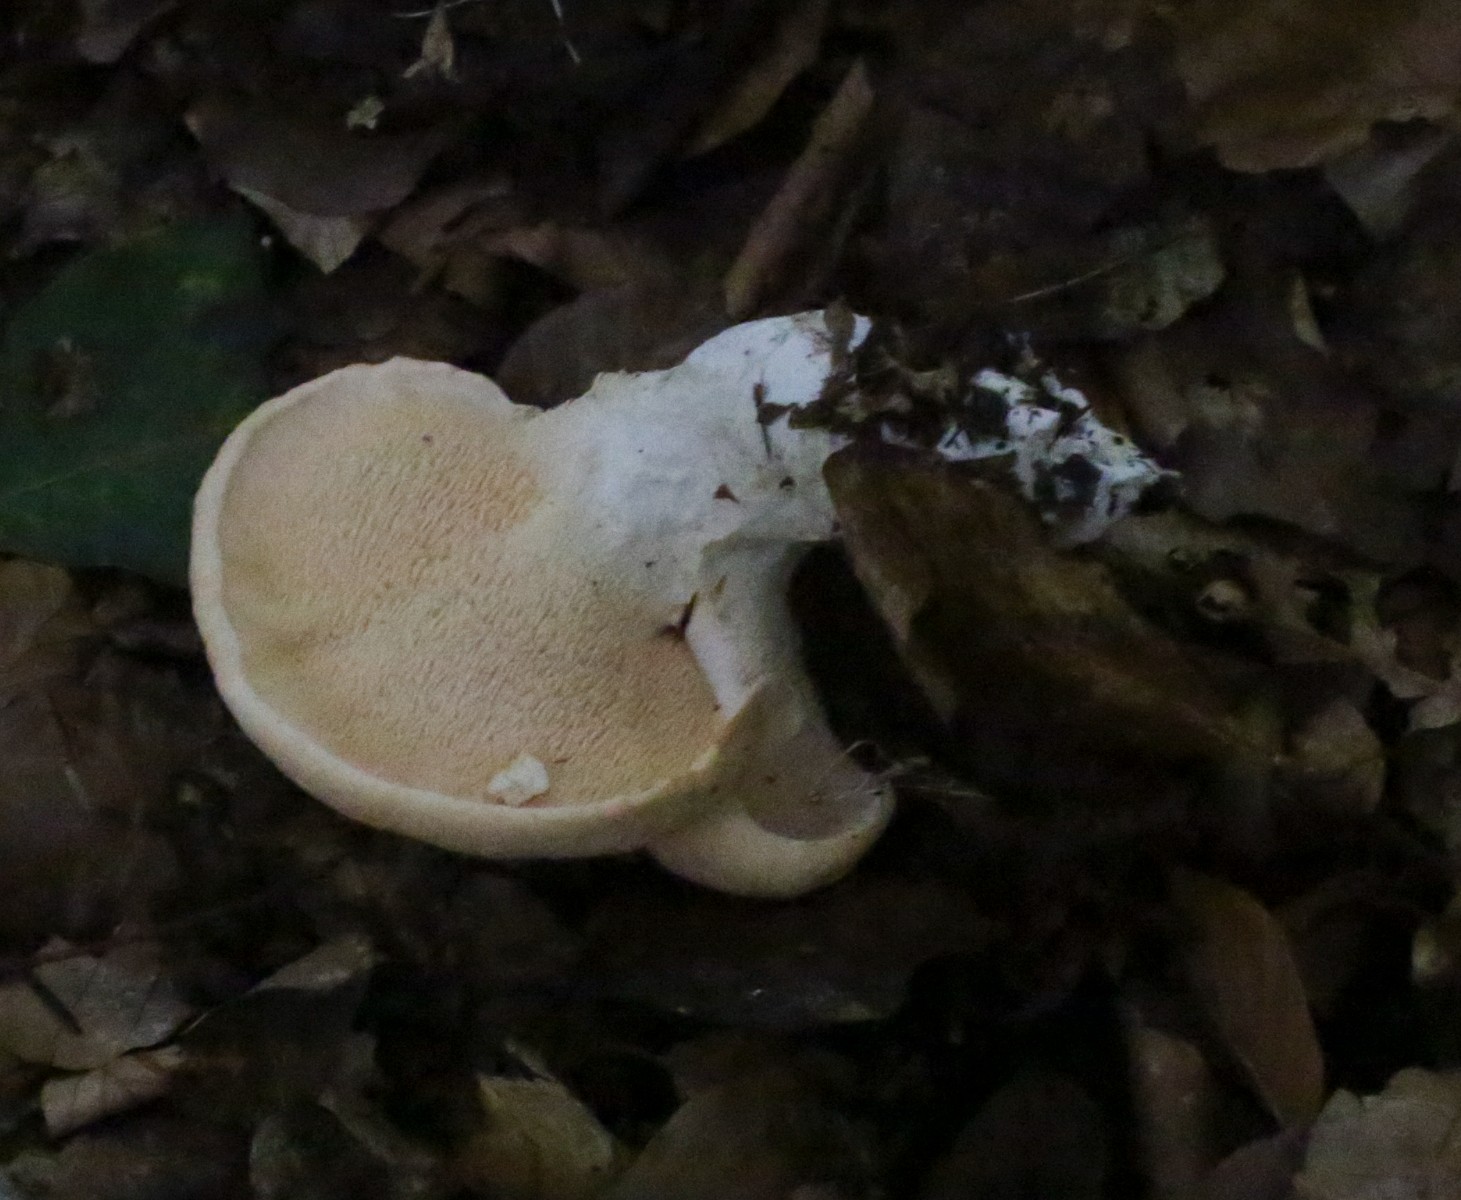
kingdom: Fungi
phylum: Basidiomycota
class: Agaricomycetes
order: Cantharellales
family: Hydnaceae
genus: Hydnum
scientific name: Hydnum
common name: pigsvamp
